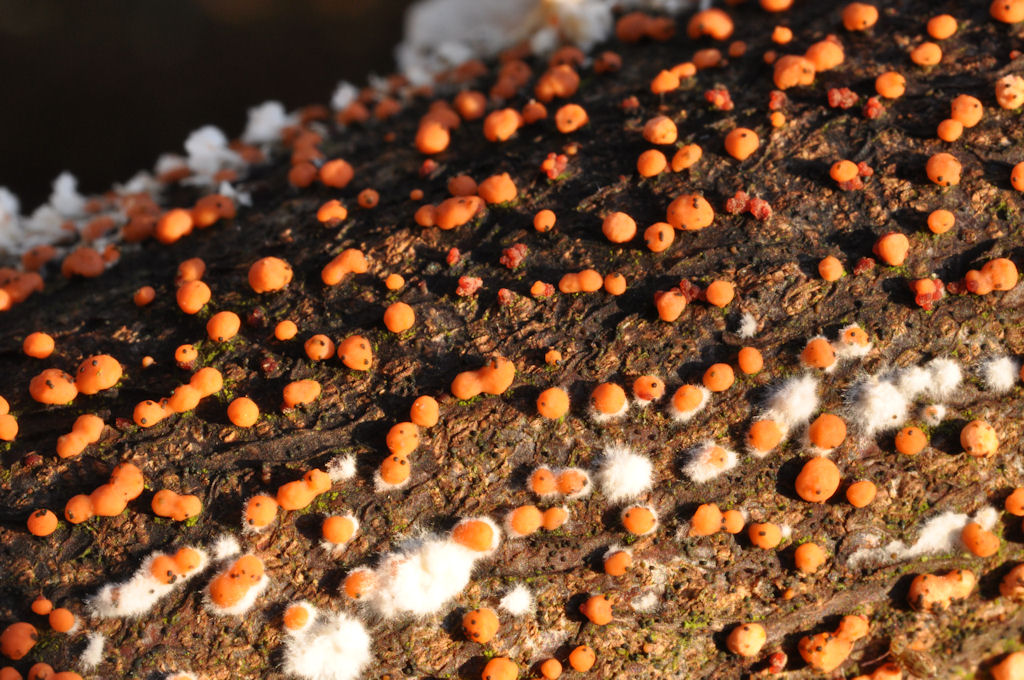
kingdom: Fungi
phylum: Ascomycota
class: Sordariomycetes
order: Hypocreales
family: Nectriaceae
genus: Nectria
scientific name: Nectria cinnabarina
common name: almindelig cinnobersvamp
